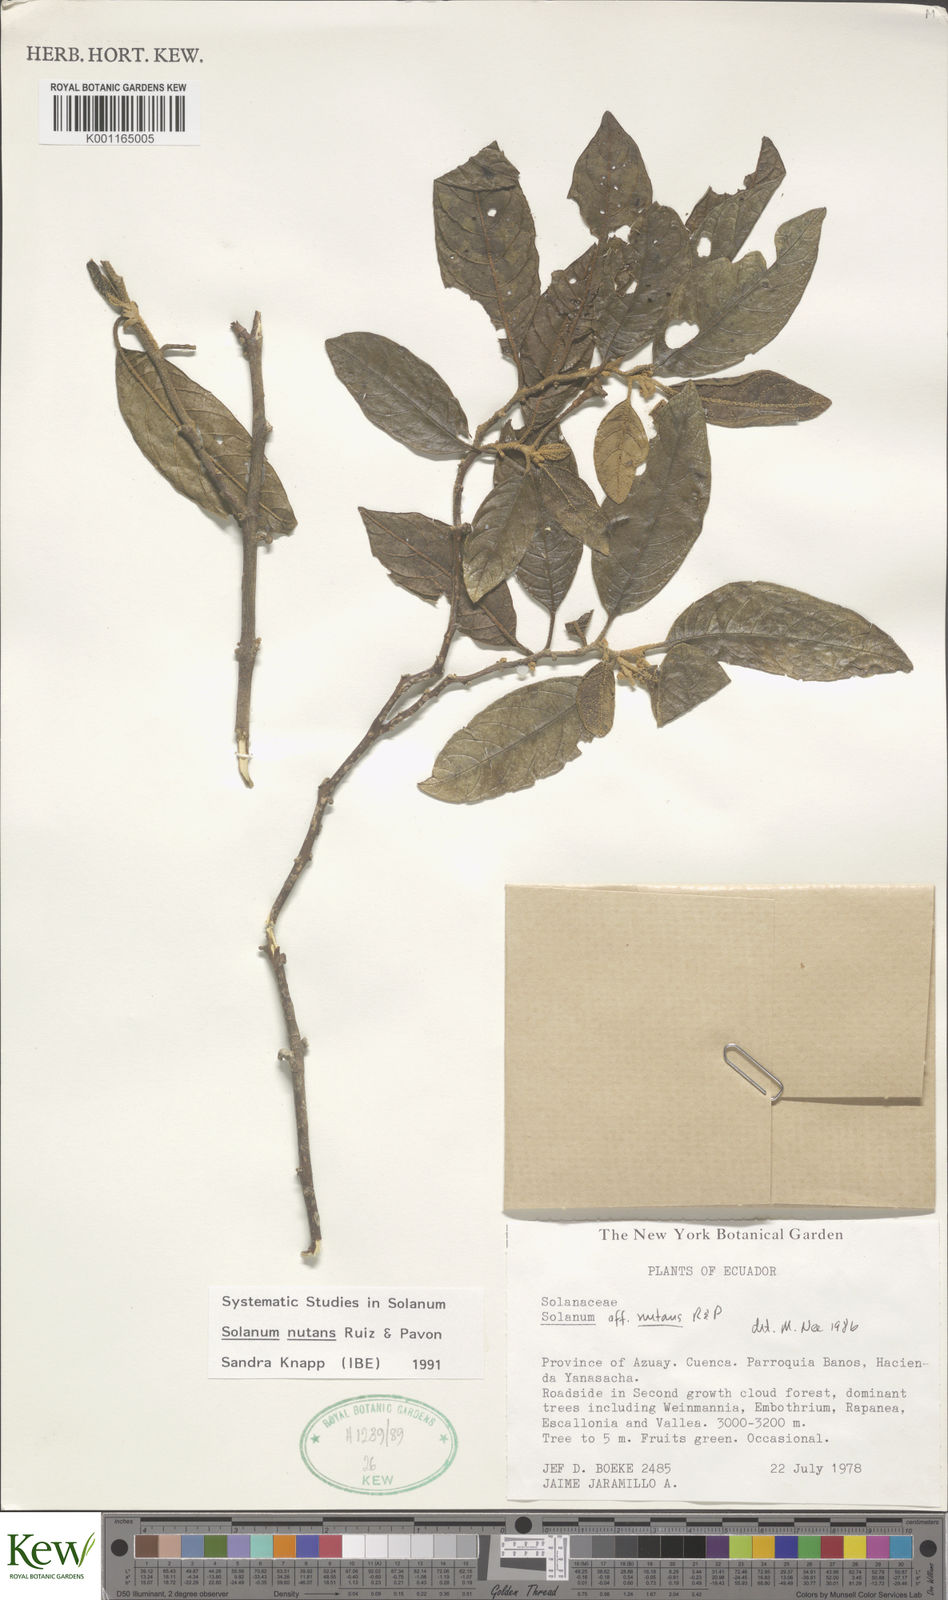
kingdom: Plantae
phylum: Tracheophyta
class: Magnoliopsida
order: Solanales
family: Solanaceae
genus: Solanum
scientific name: Solanum nutans
